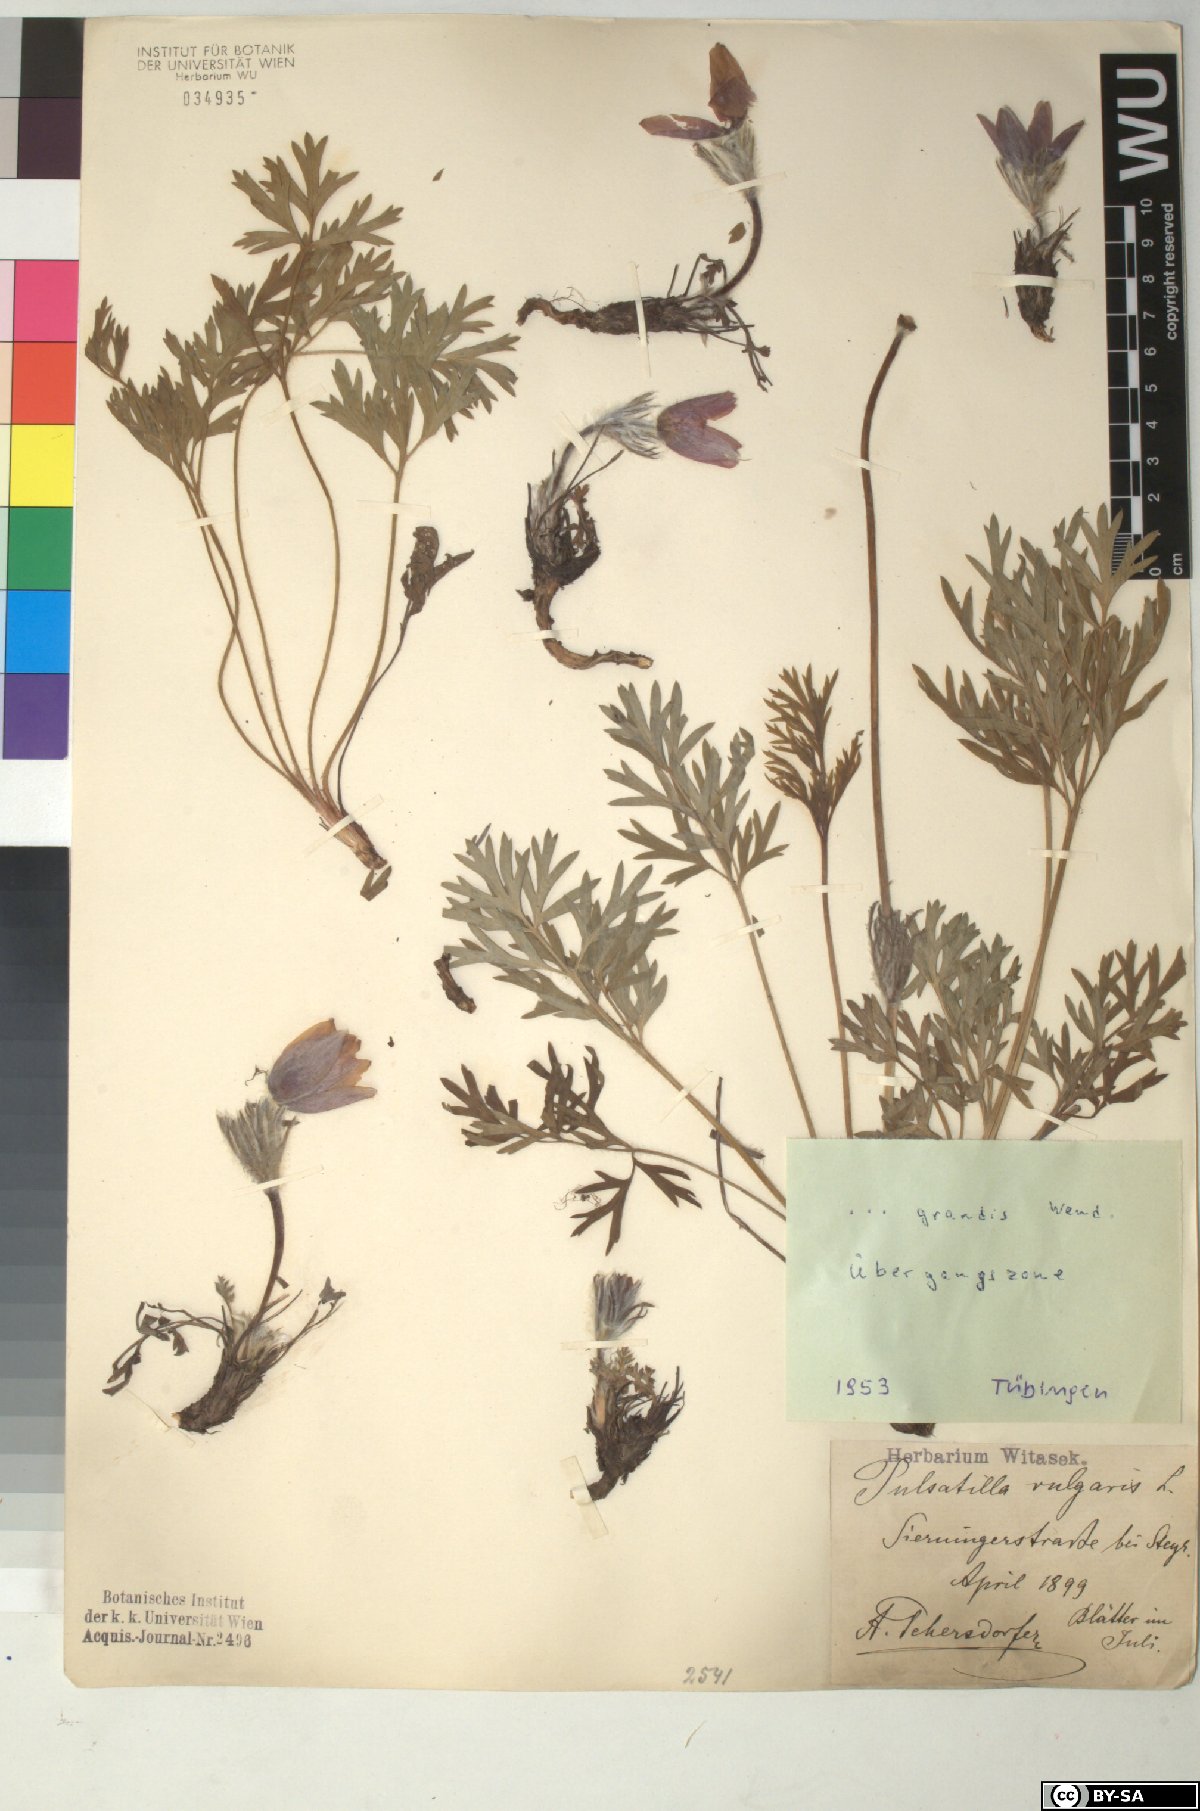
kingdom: Plantae
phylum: Tracheophyta
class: Magnoliopsida
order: Ranunculales
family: Ranunculaceae
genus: Pulsatilla
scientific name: Pulsatilla grandis
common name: Greater pasque flower
